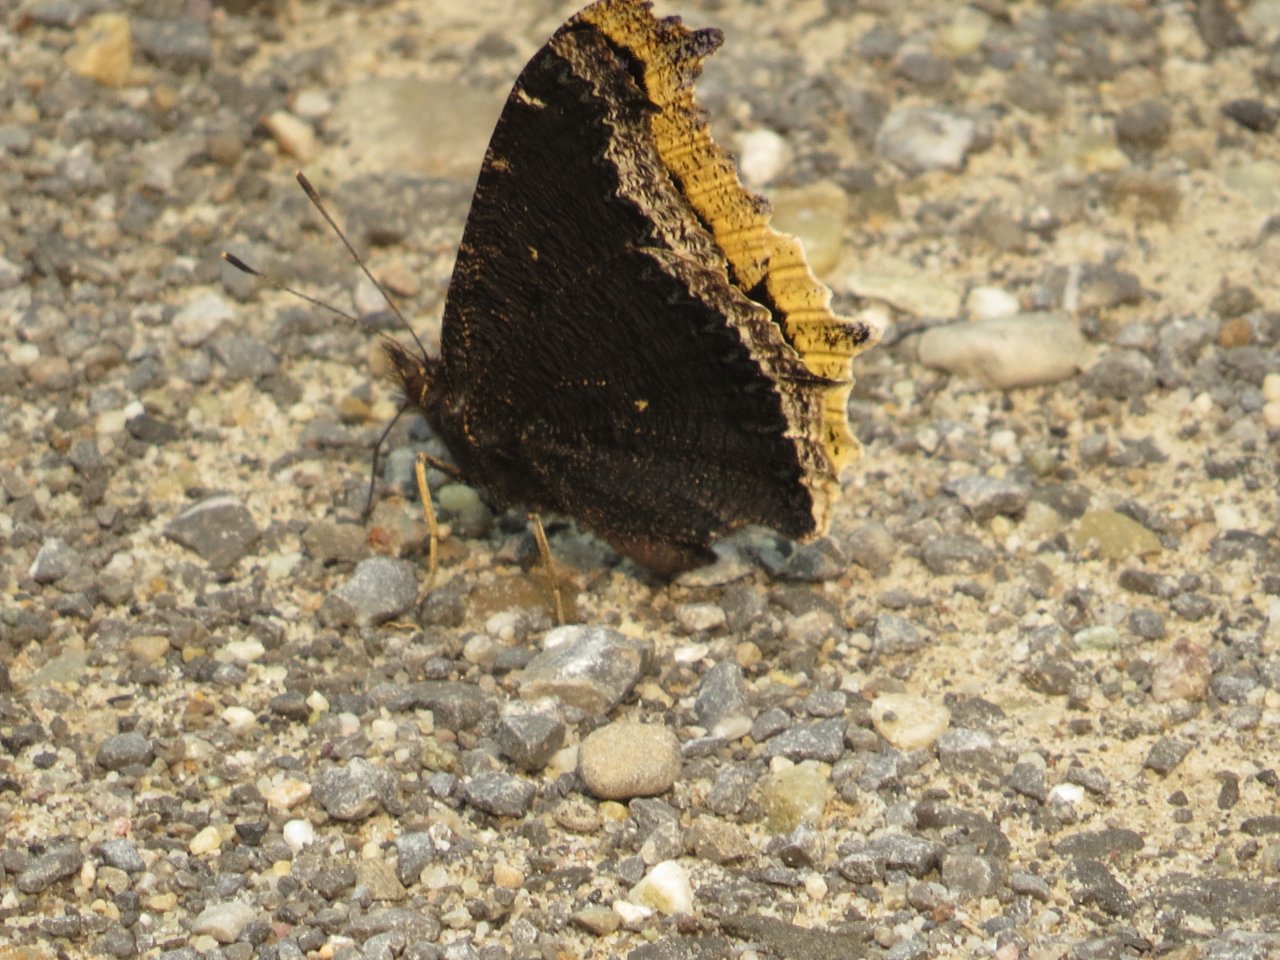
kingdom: Animalia
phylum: Arthropoda
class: Insecta
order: Lepidoptera
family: Nymphalidae
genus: Nymphalis
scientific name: Nymphalis antiopa
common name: Mourning Cloak
